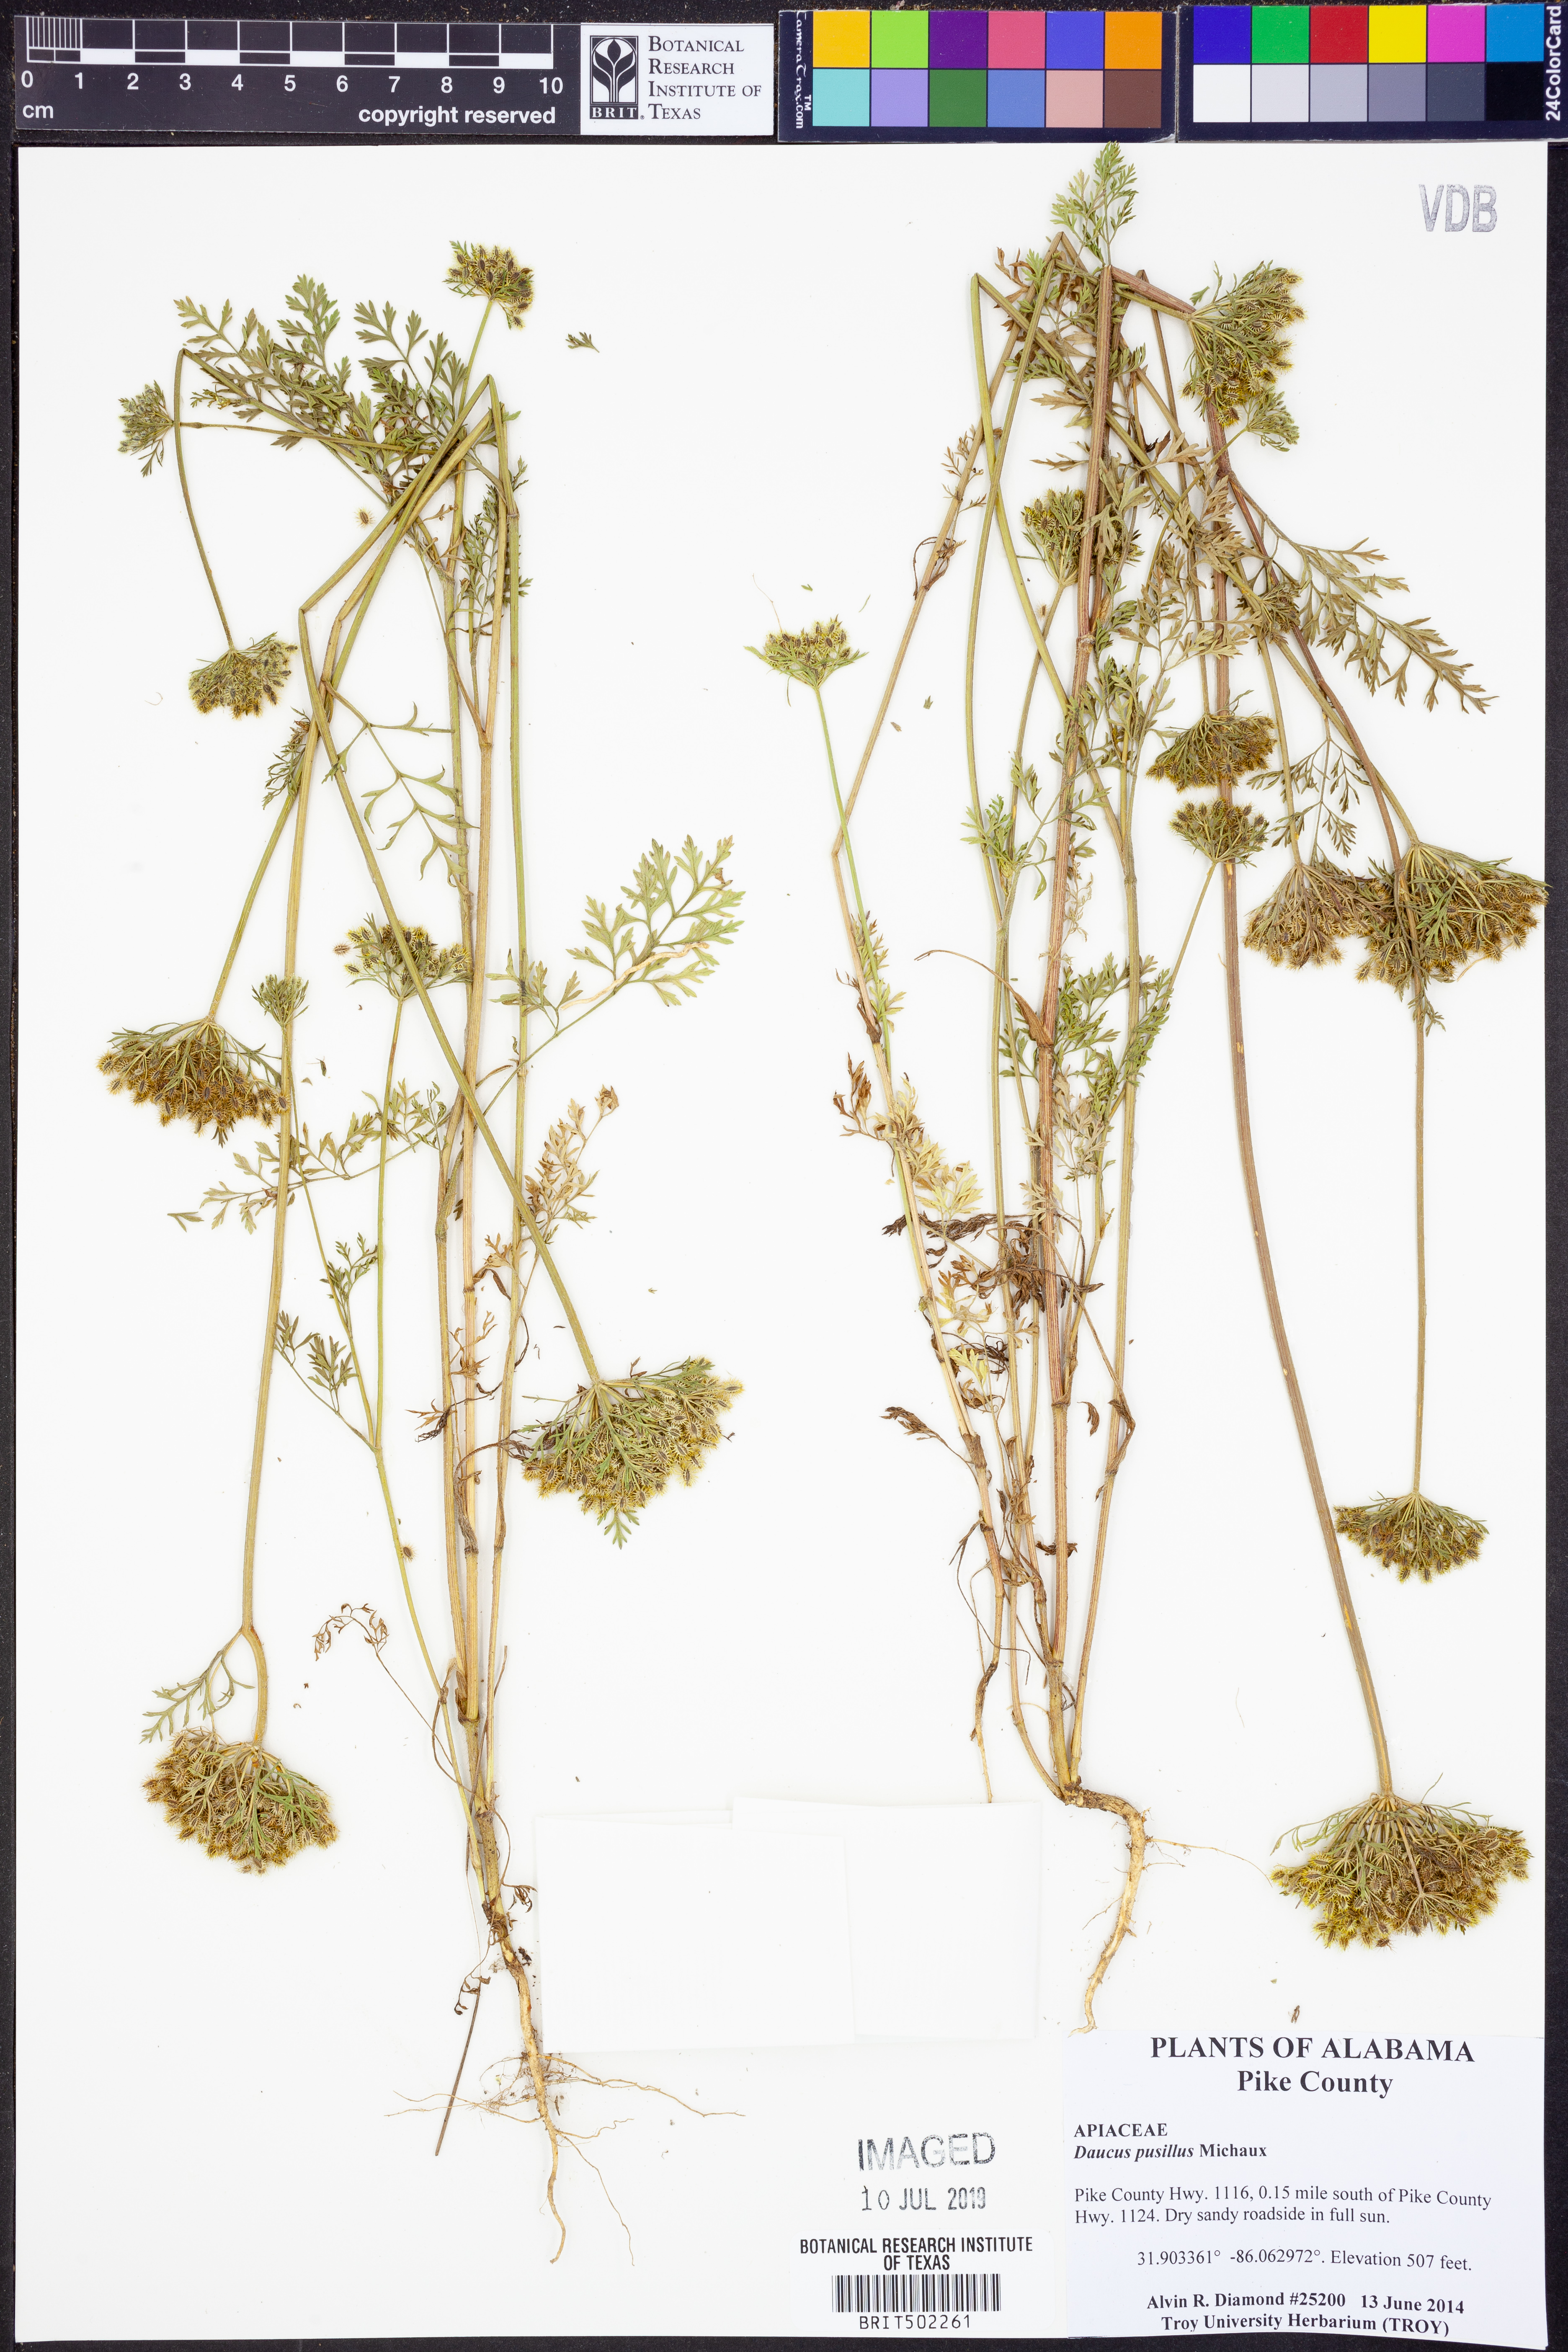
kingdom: Plantae
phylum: Tracheophyta
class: Magnoliopsida
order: Apiales
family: Apiaceae
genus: Daucus
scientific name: Daucus pusillus
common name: Southwest wild carrot
